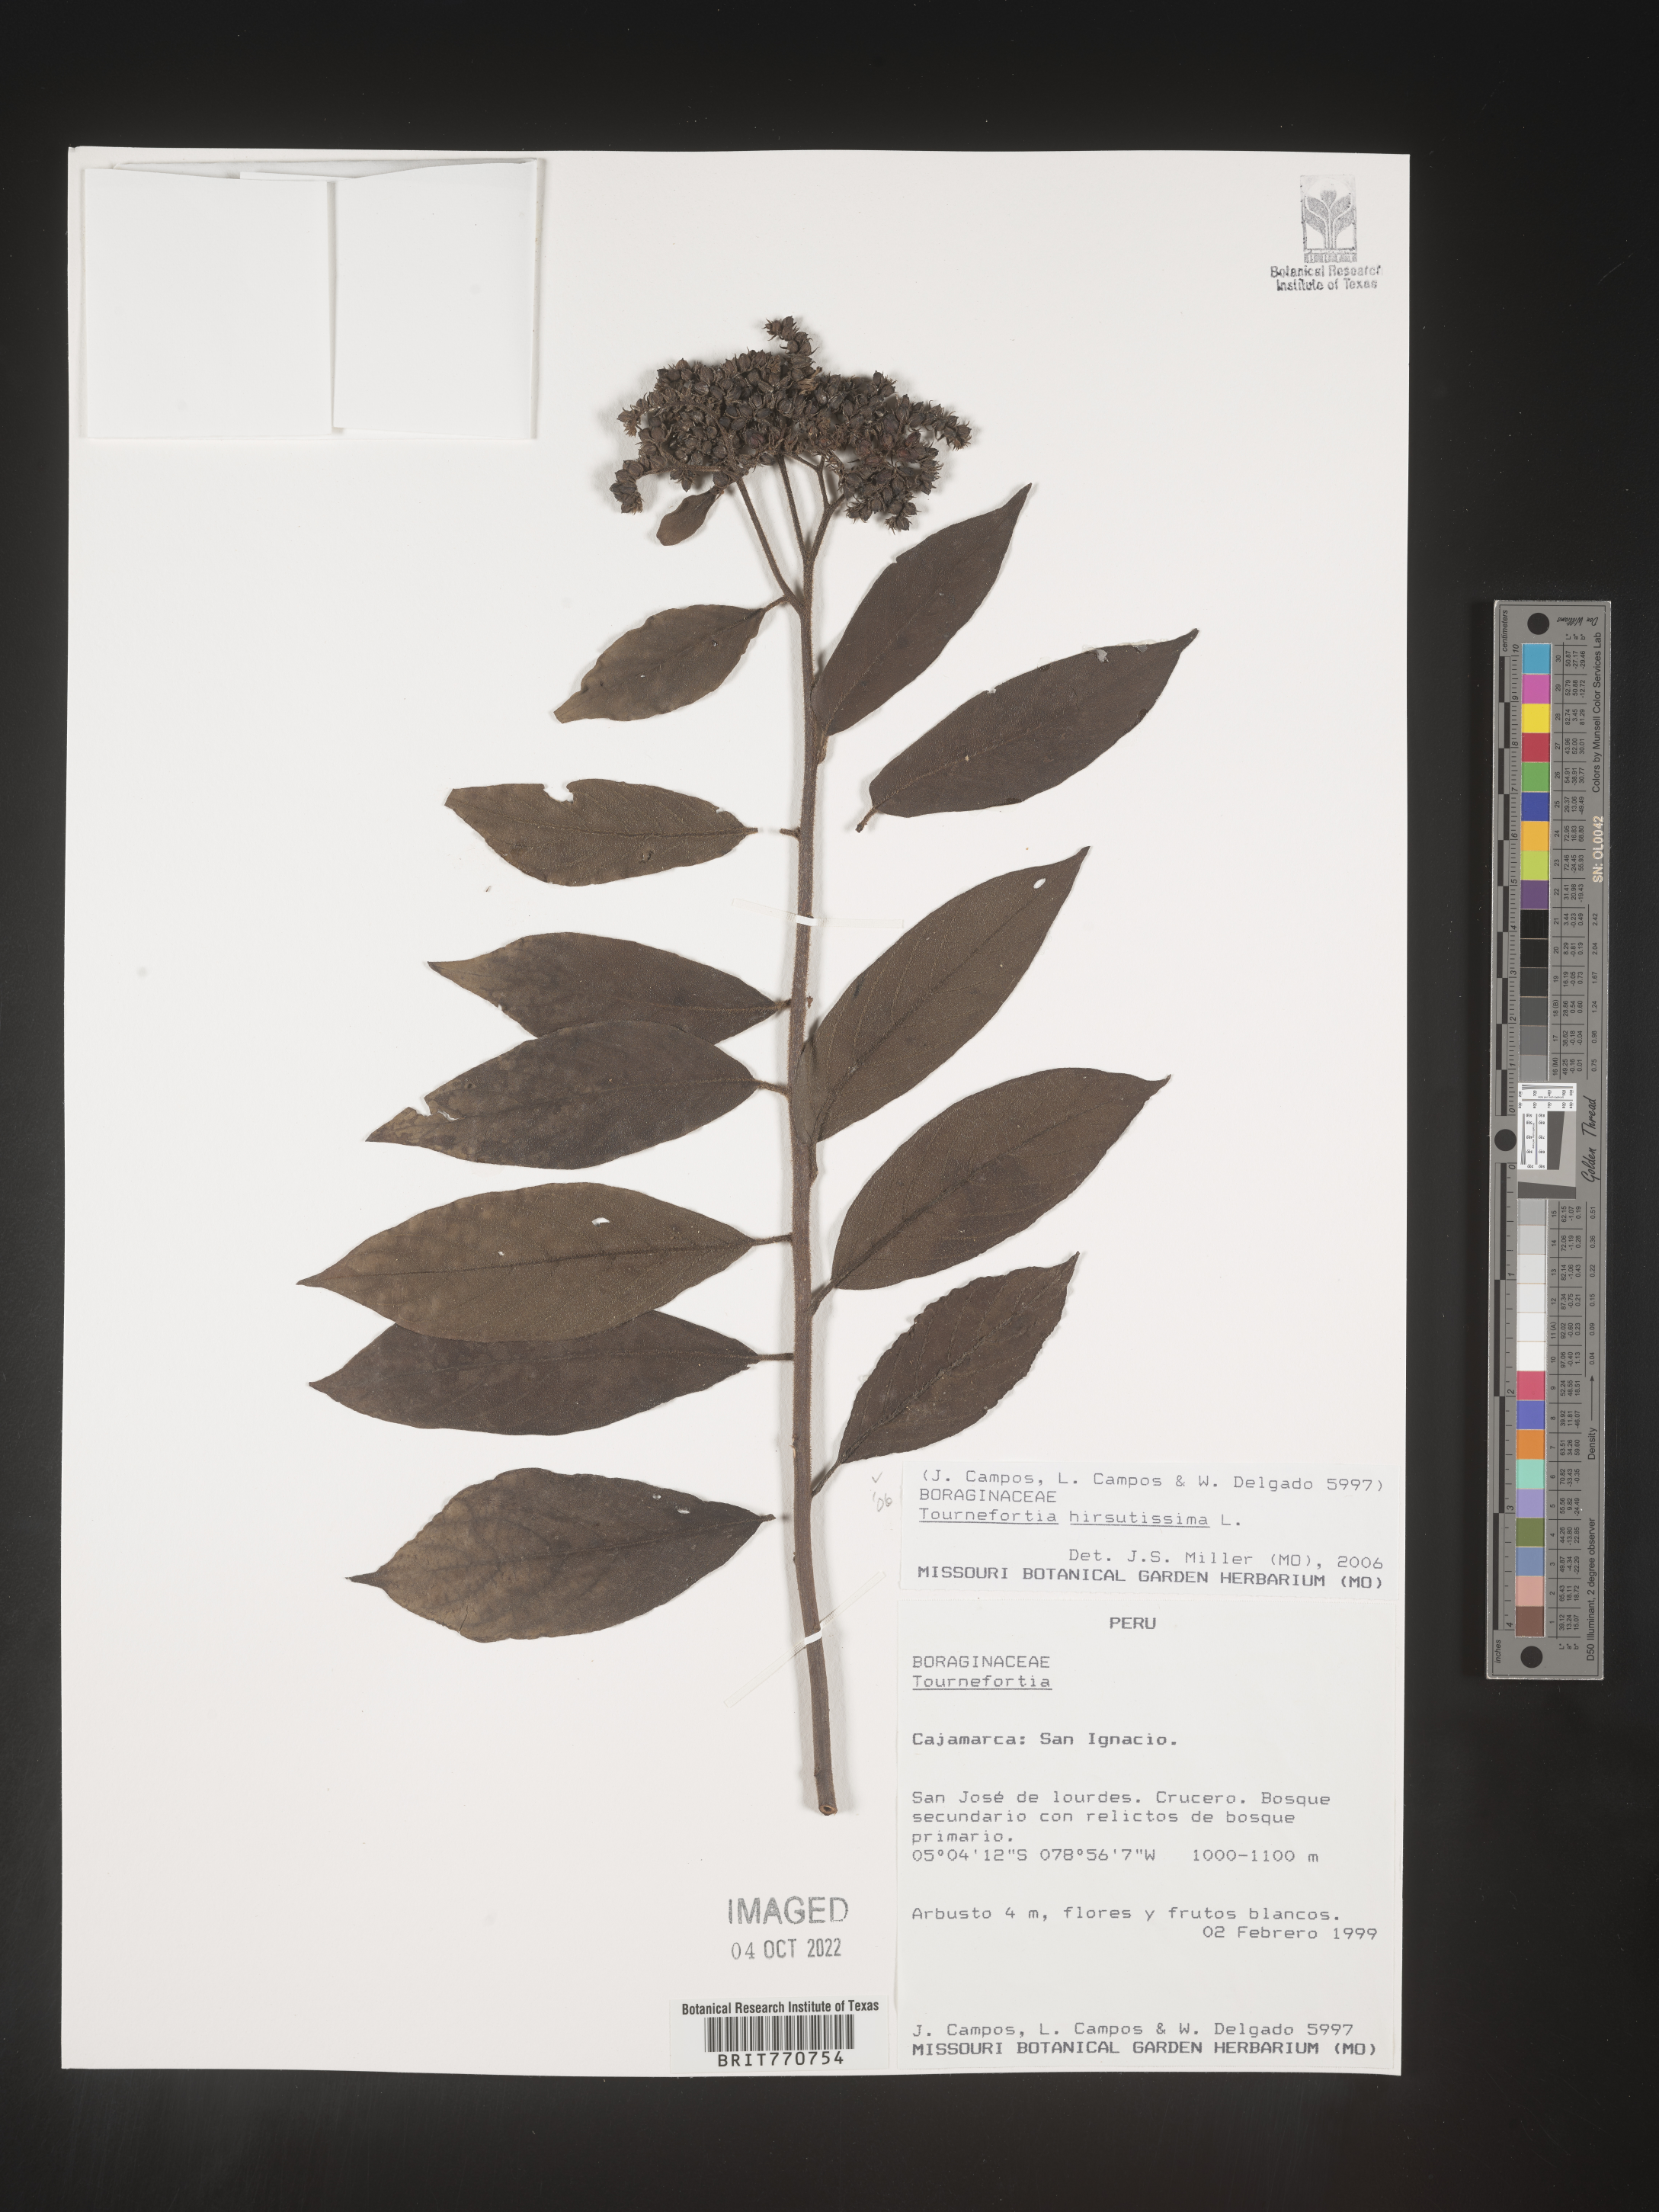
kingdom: Plantae
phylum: Tracheophyta
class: Magnoliopsida
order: Boraginales
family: Heliotropiaceae
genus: Tournefortia
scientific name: Tournefortia
